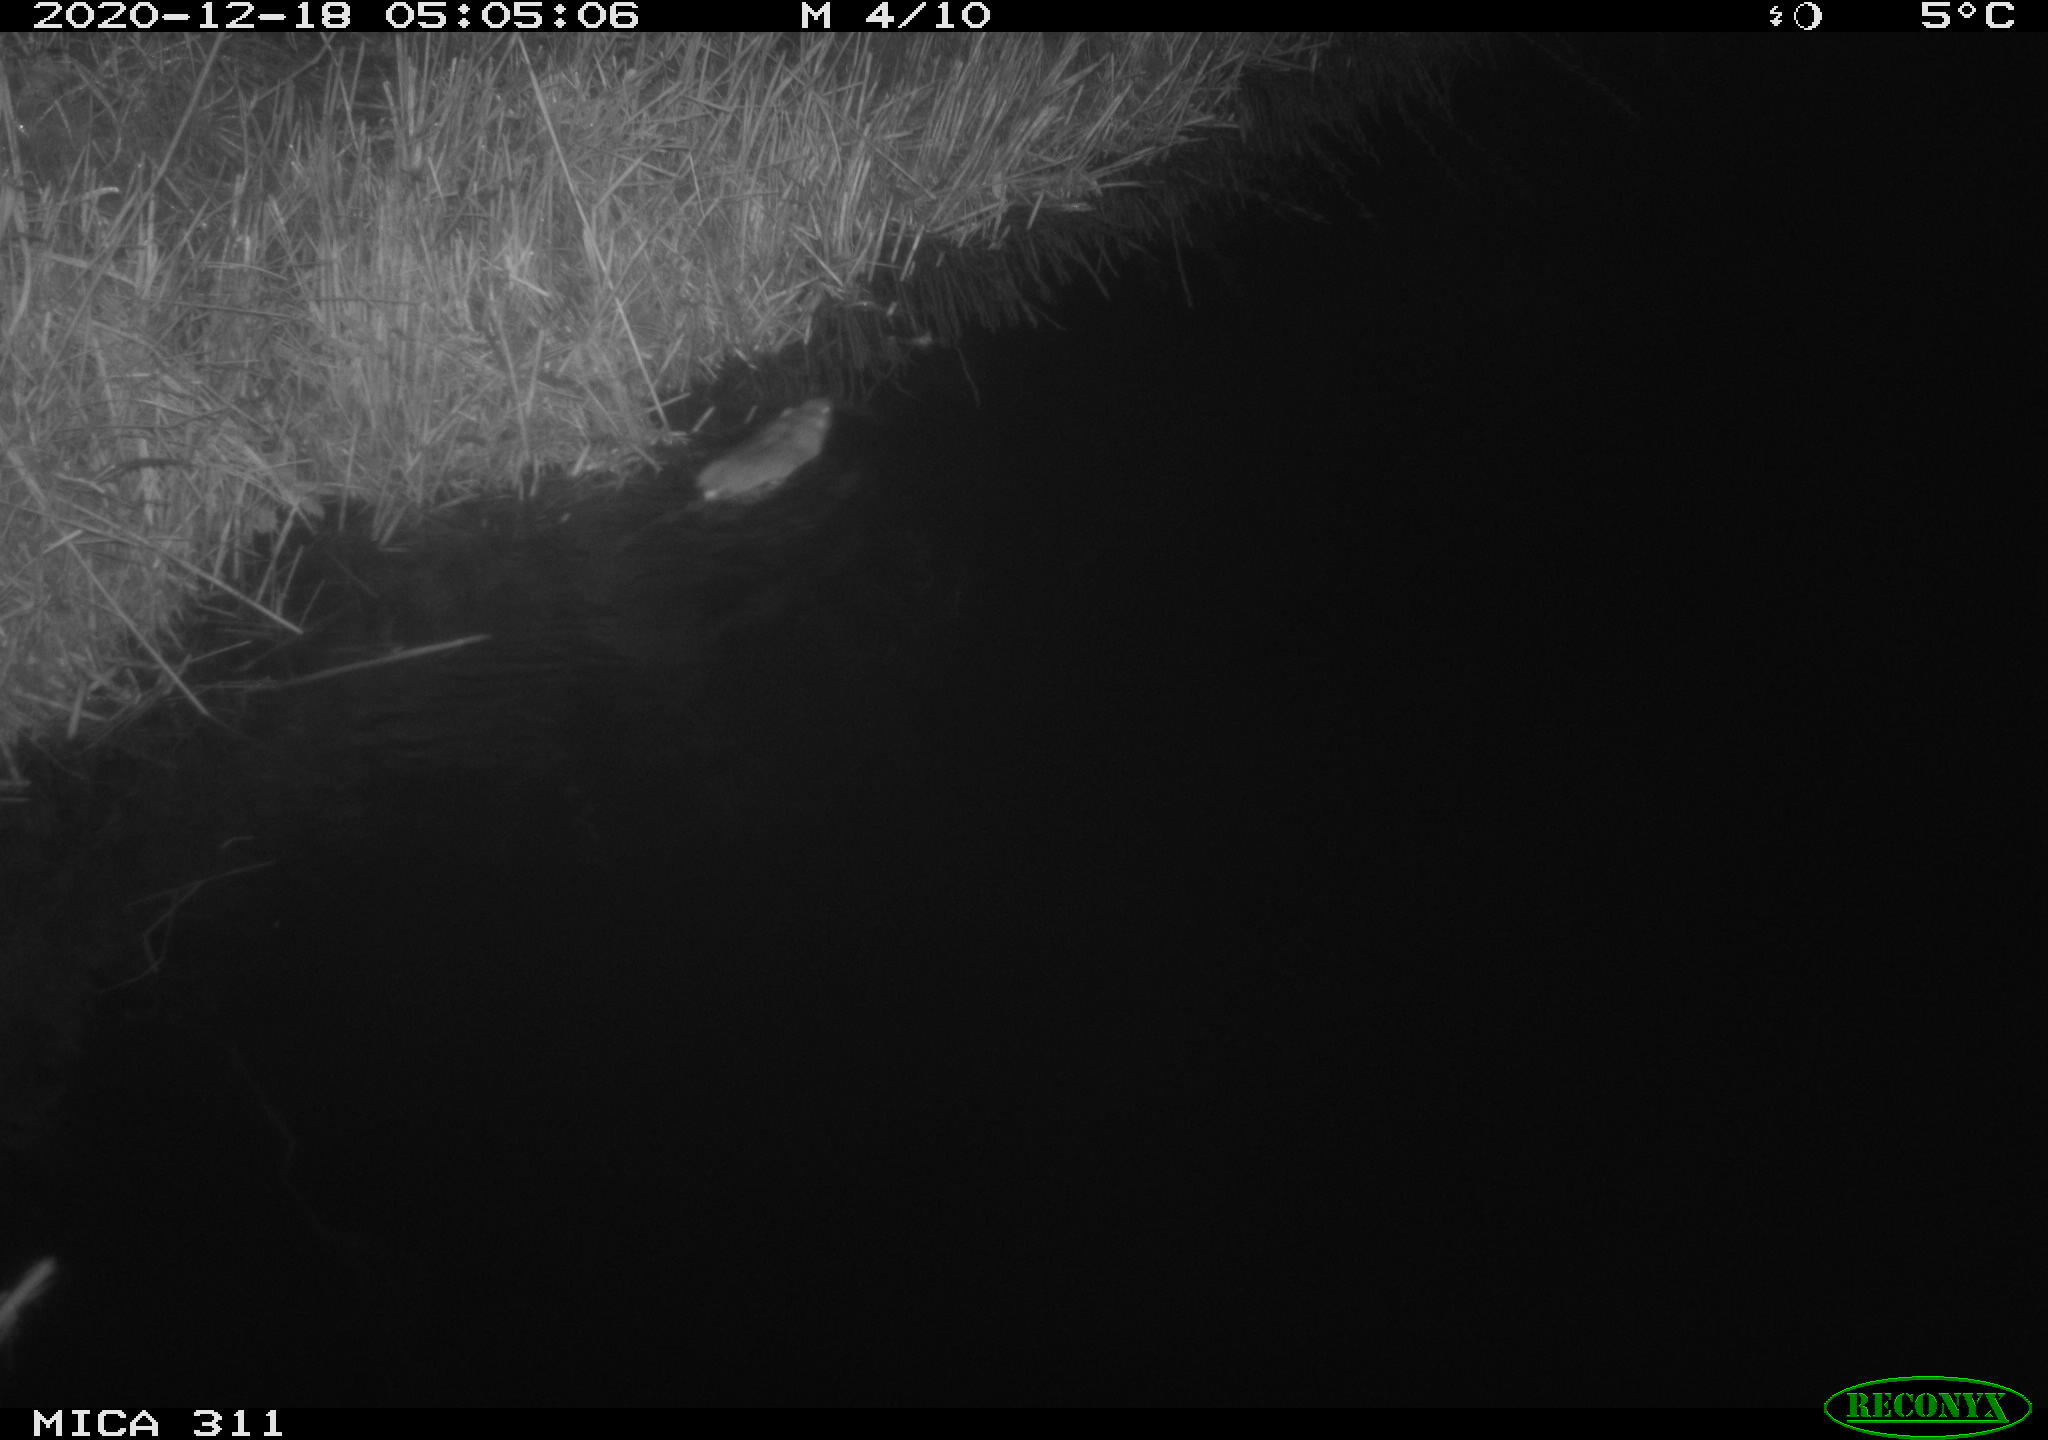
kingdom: Animalia
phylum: Chordata
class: Mammalia
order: Rodentia
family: Muridae
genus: Rattus
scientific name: Rattus norvegicus
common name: Brown rat
